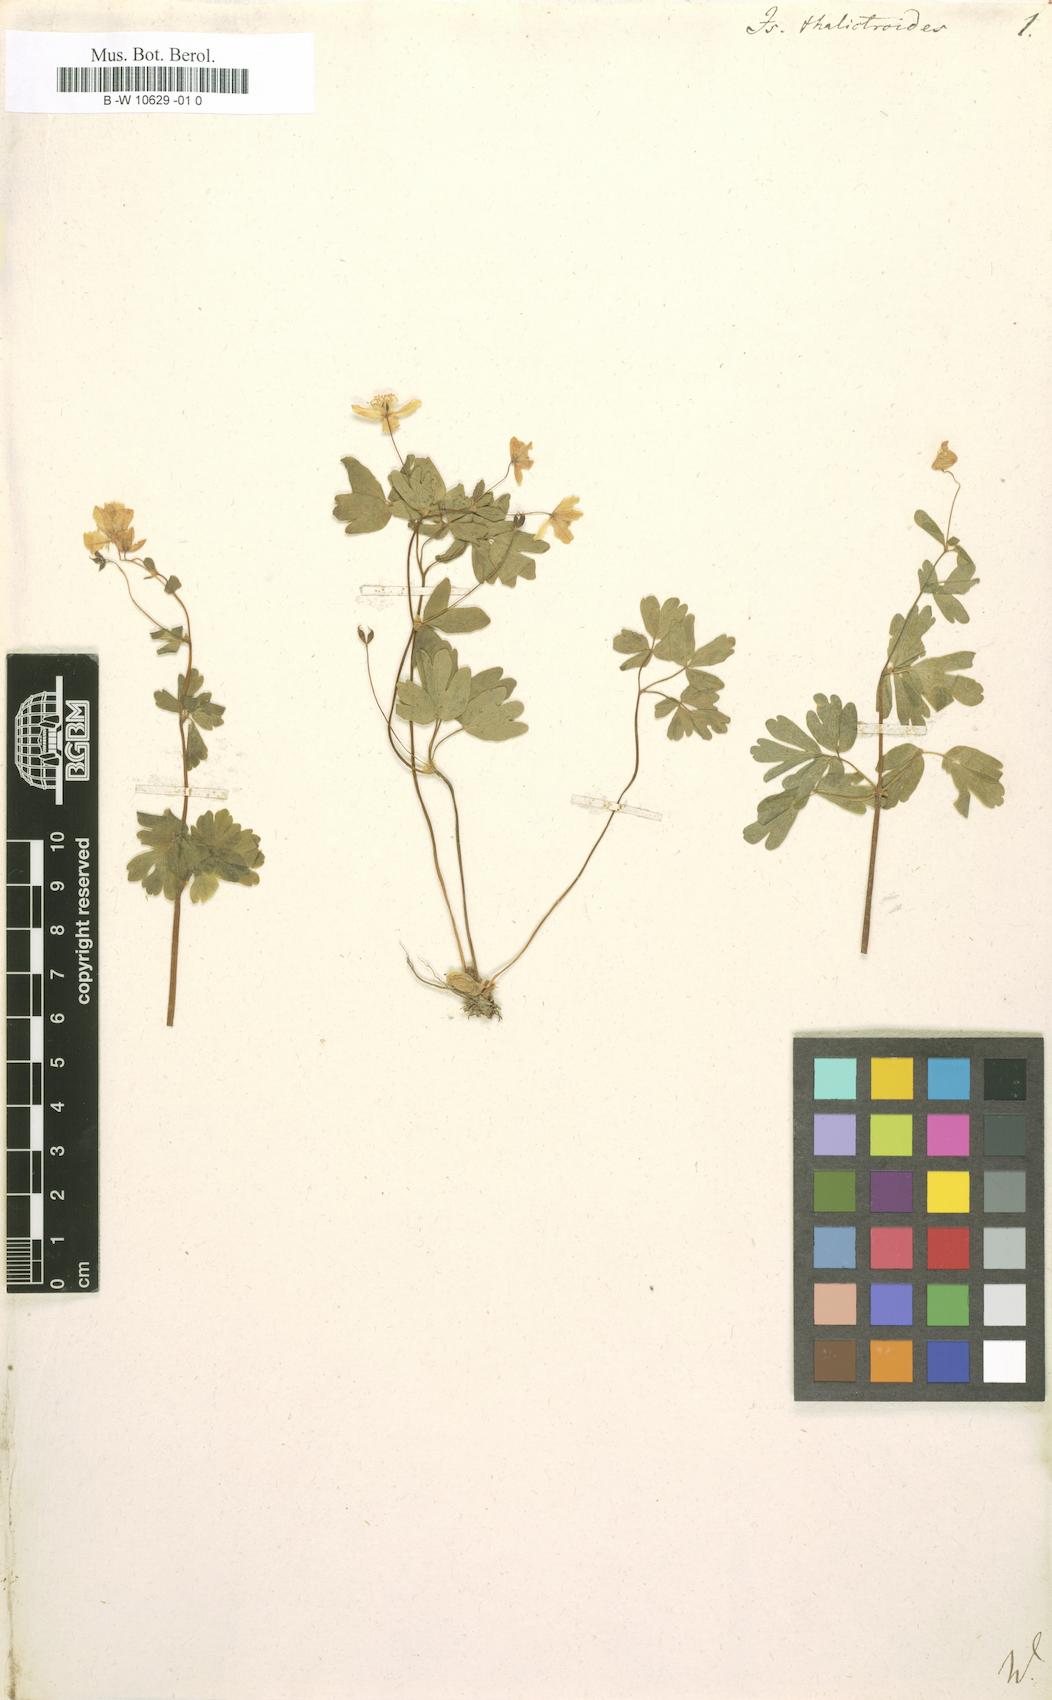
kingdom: Plantae
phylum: Tracheophyta
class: Magnoliopsida
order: Ranunculales
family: Ranunculaceae
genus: Isopyrum
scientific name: Isopyrum thalictroides
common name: Isopyrum
